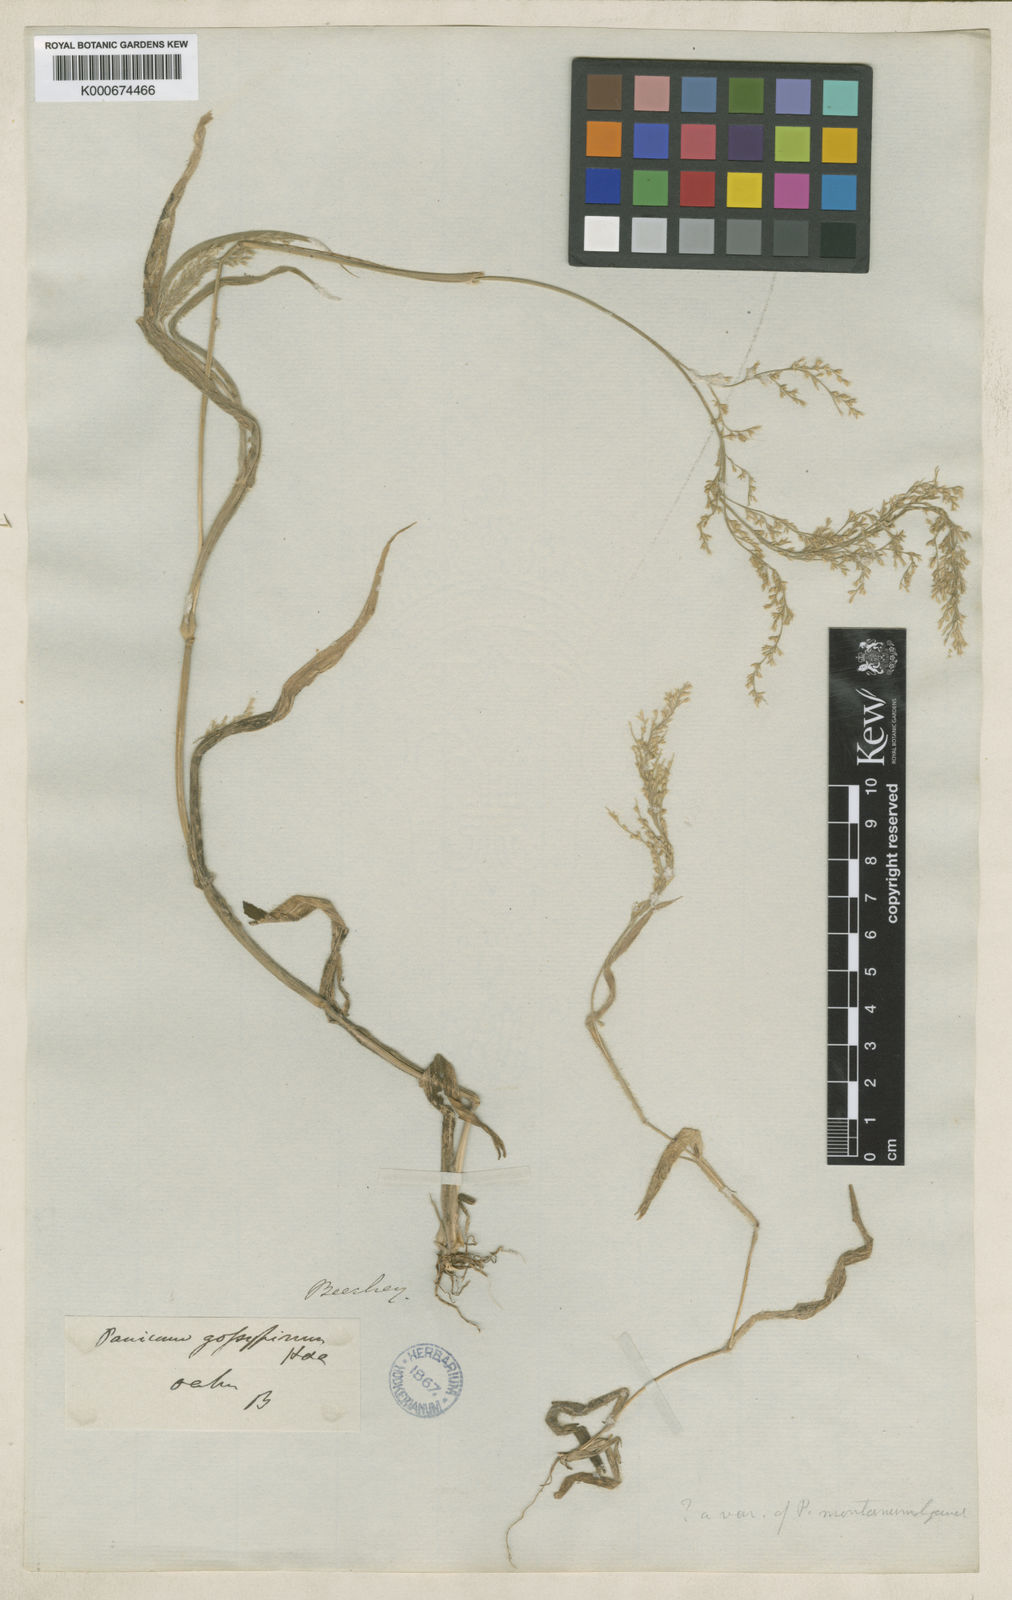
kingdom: Plantae
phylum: Tracheophyta
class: Liliopsida
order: Poales
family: Poaceae
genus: Panicum
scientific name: Panicum pellitum
